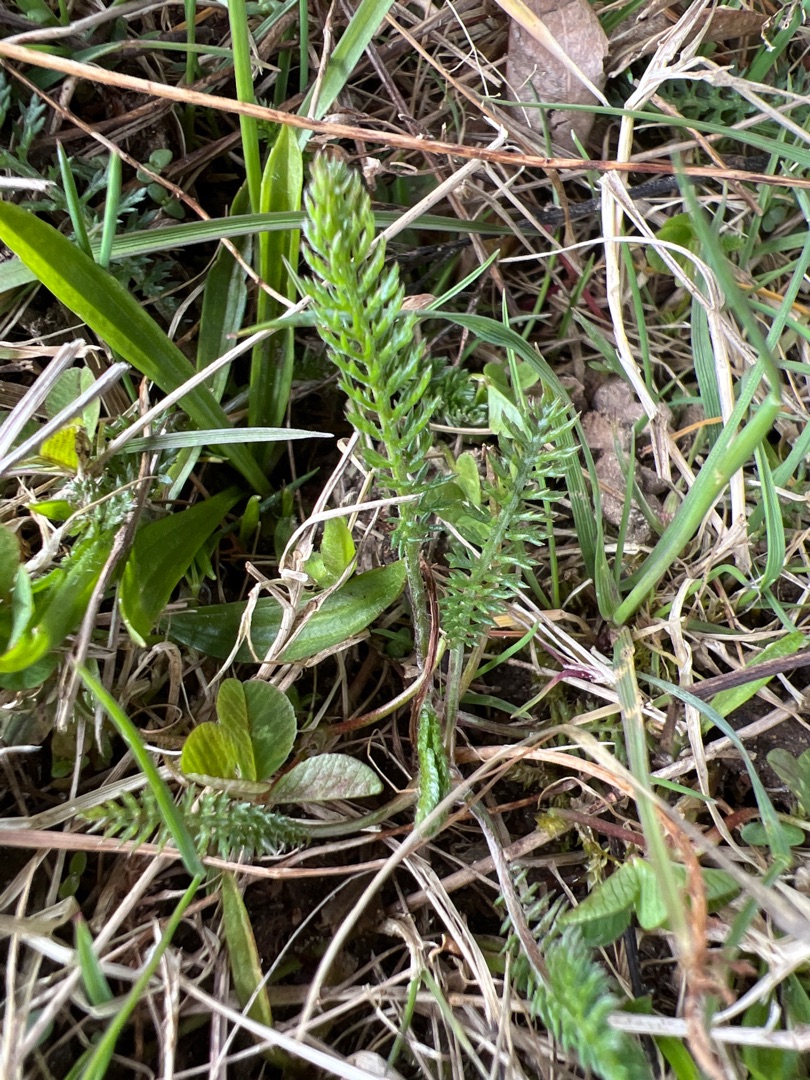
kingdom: Plantae
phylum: Tracheophyta
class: Magnoliopsida
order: Asterales
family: Asteraceae
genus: Achillea
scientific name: Achillea millefolium
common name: Almindelig røllike
